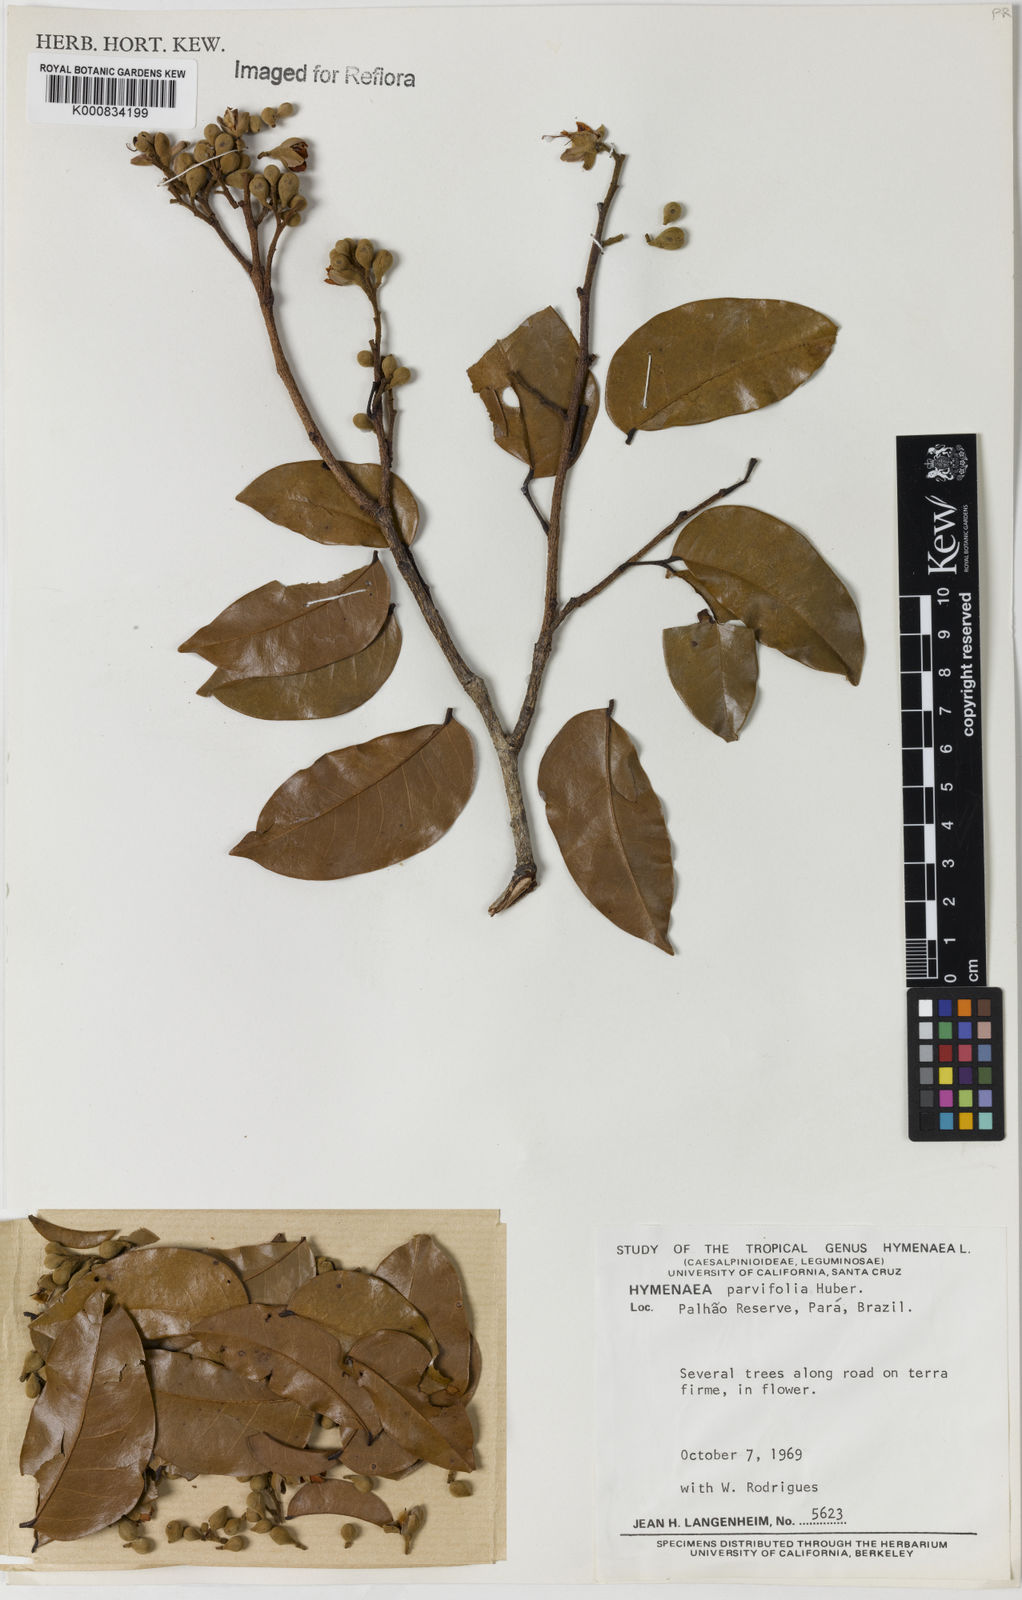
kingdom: Plantae
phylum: Tracheophyta
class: Magnoliopsida
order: Fabales
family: Fabaceae
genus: Hymenaea
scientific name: Hymenaea parvifolia
